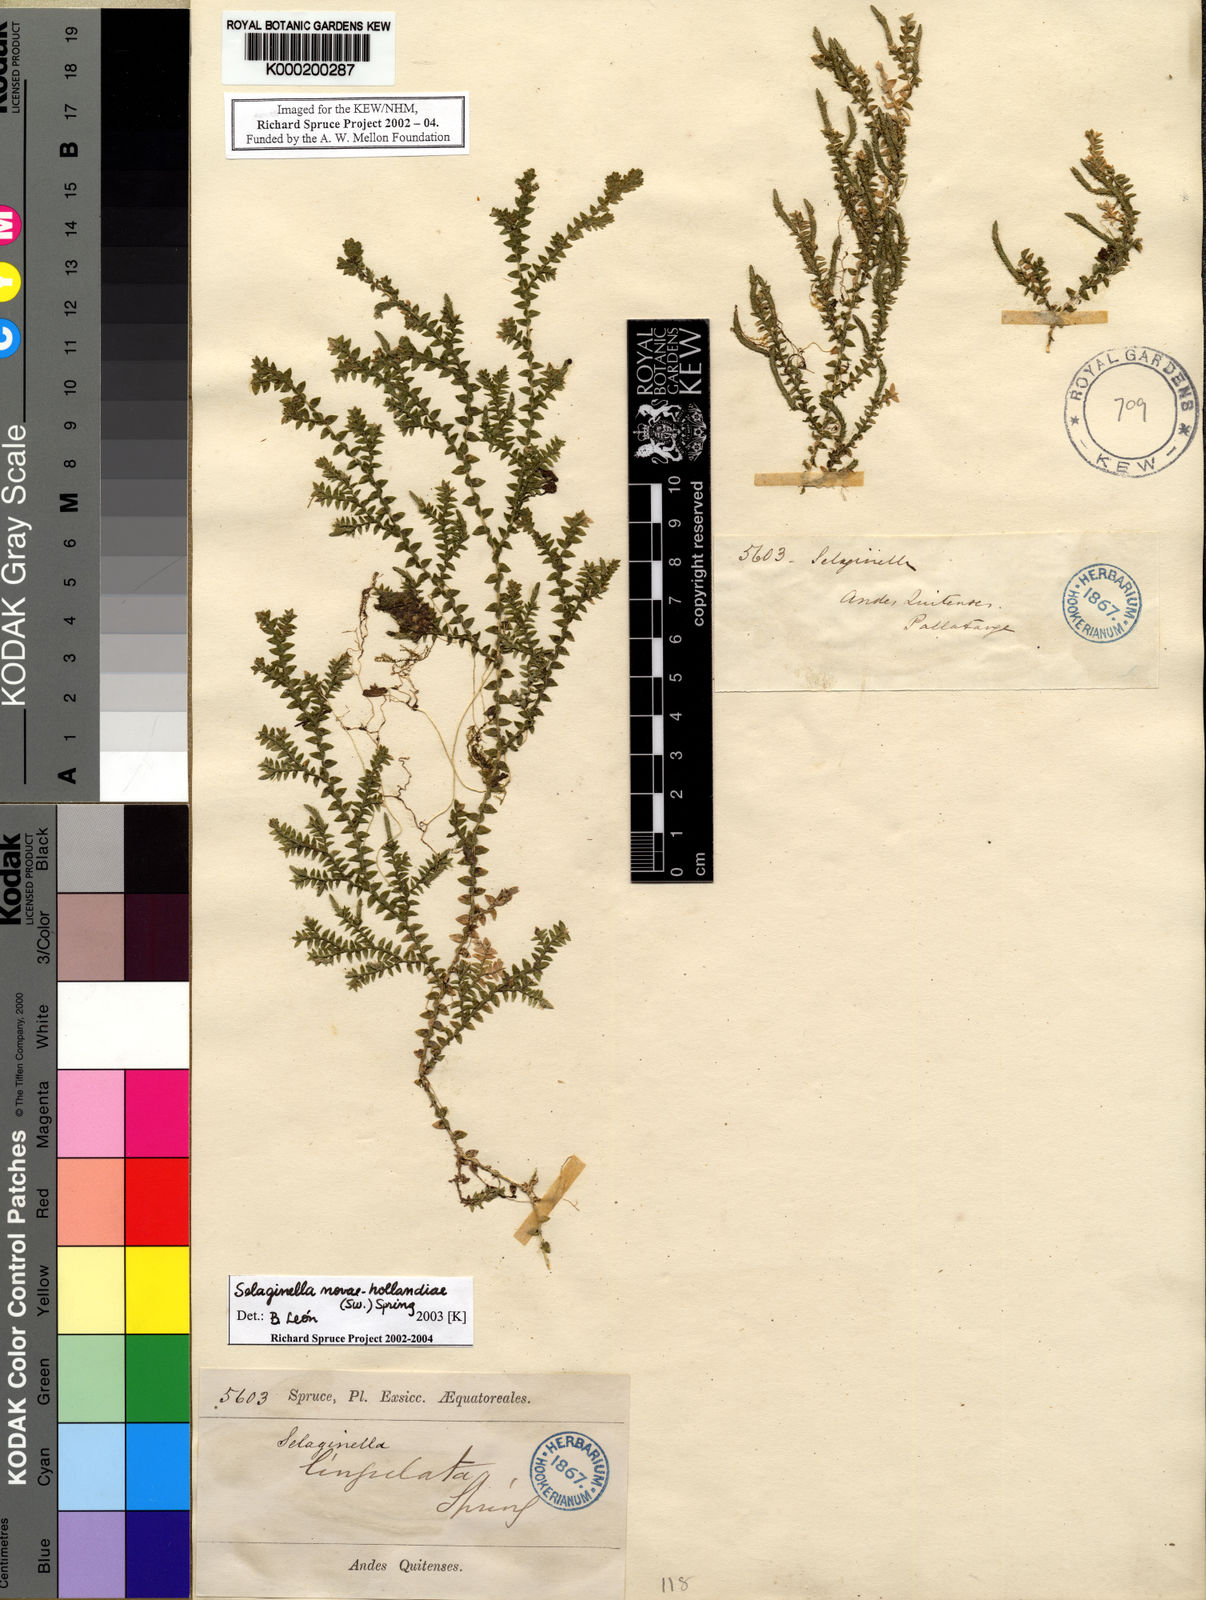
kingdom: Plantae
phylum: Tracheophyta
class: Lycopodiopsida
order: Selaginellales
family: Selaginellaceae
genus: Selaginella
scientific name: Selaginella novae-hollandiae
